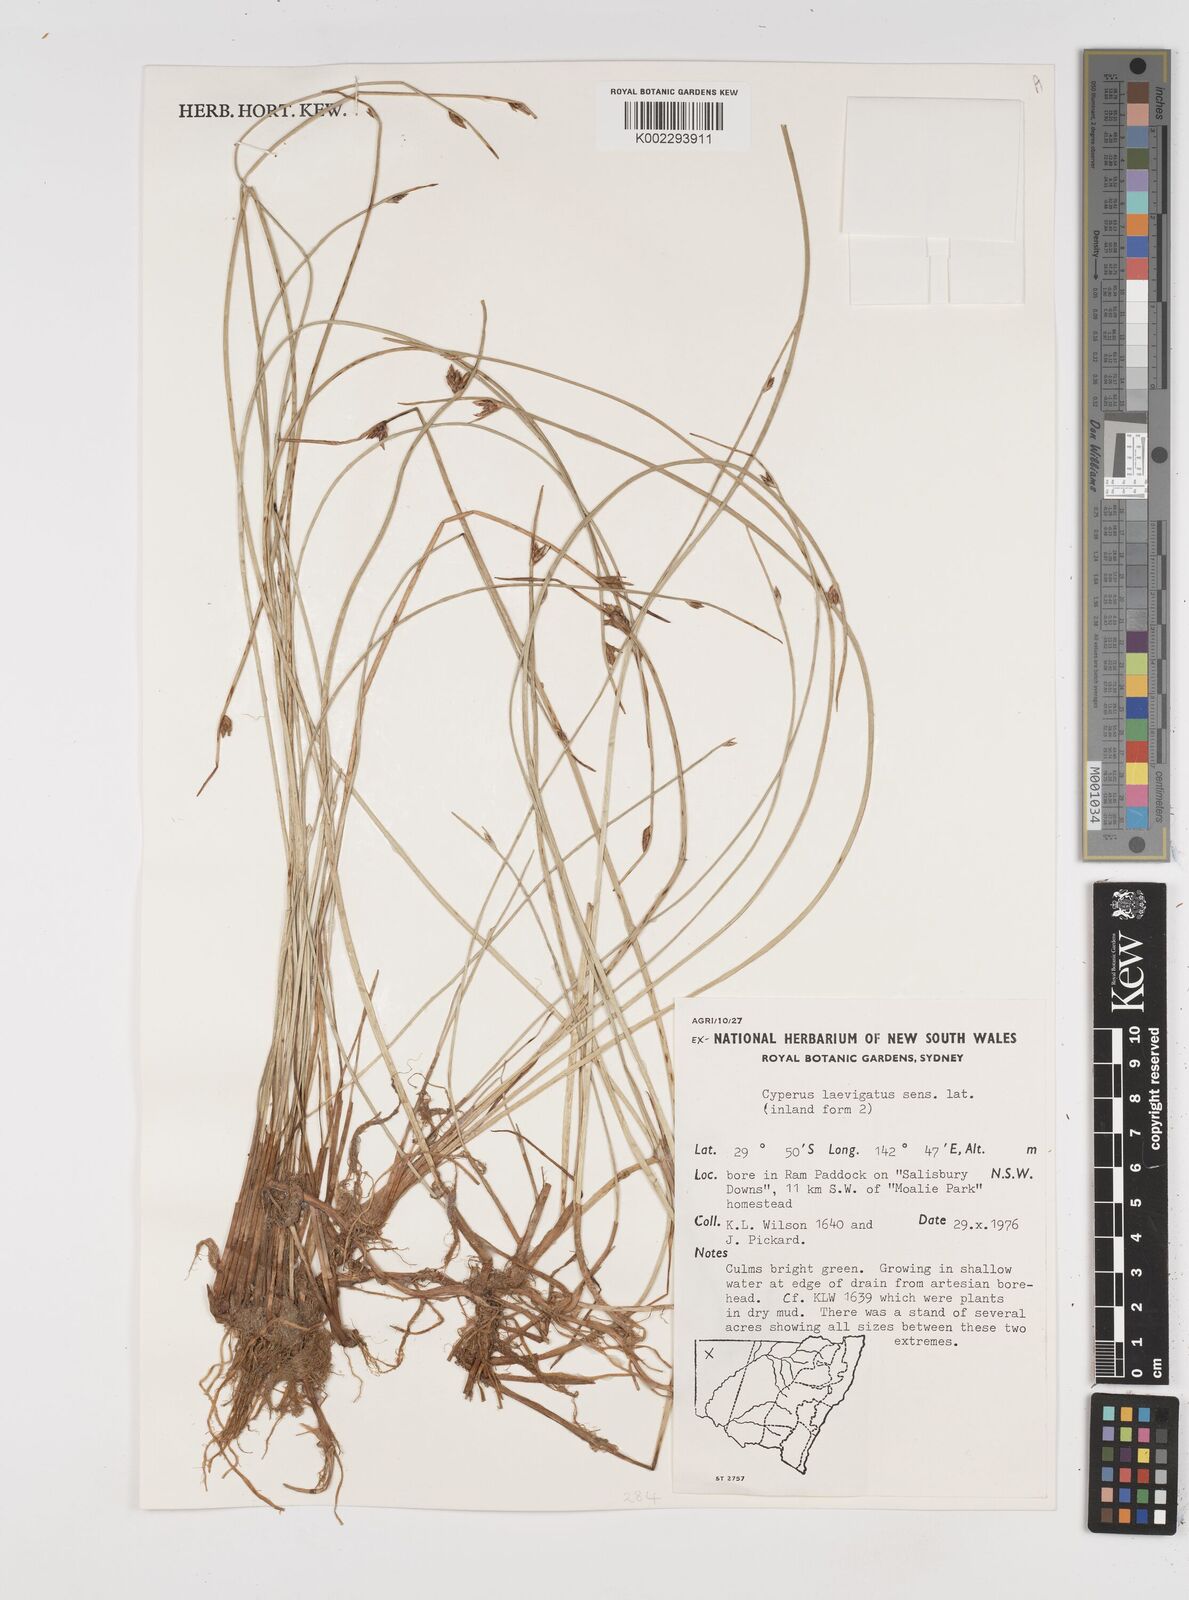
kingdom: Plantae
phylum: Tracheophyta
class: Liliopsida
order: Poales
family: Cyperaceae
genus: Cyperus
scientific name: Cyperus laevigatus
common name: Smooth flat sedge
